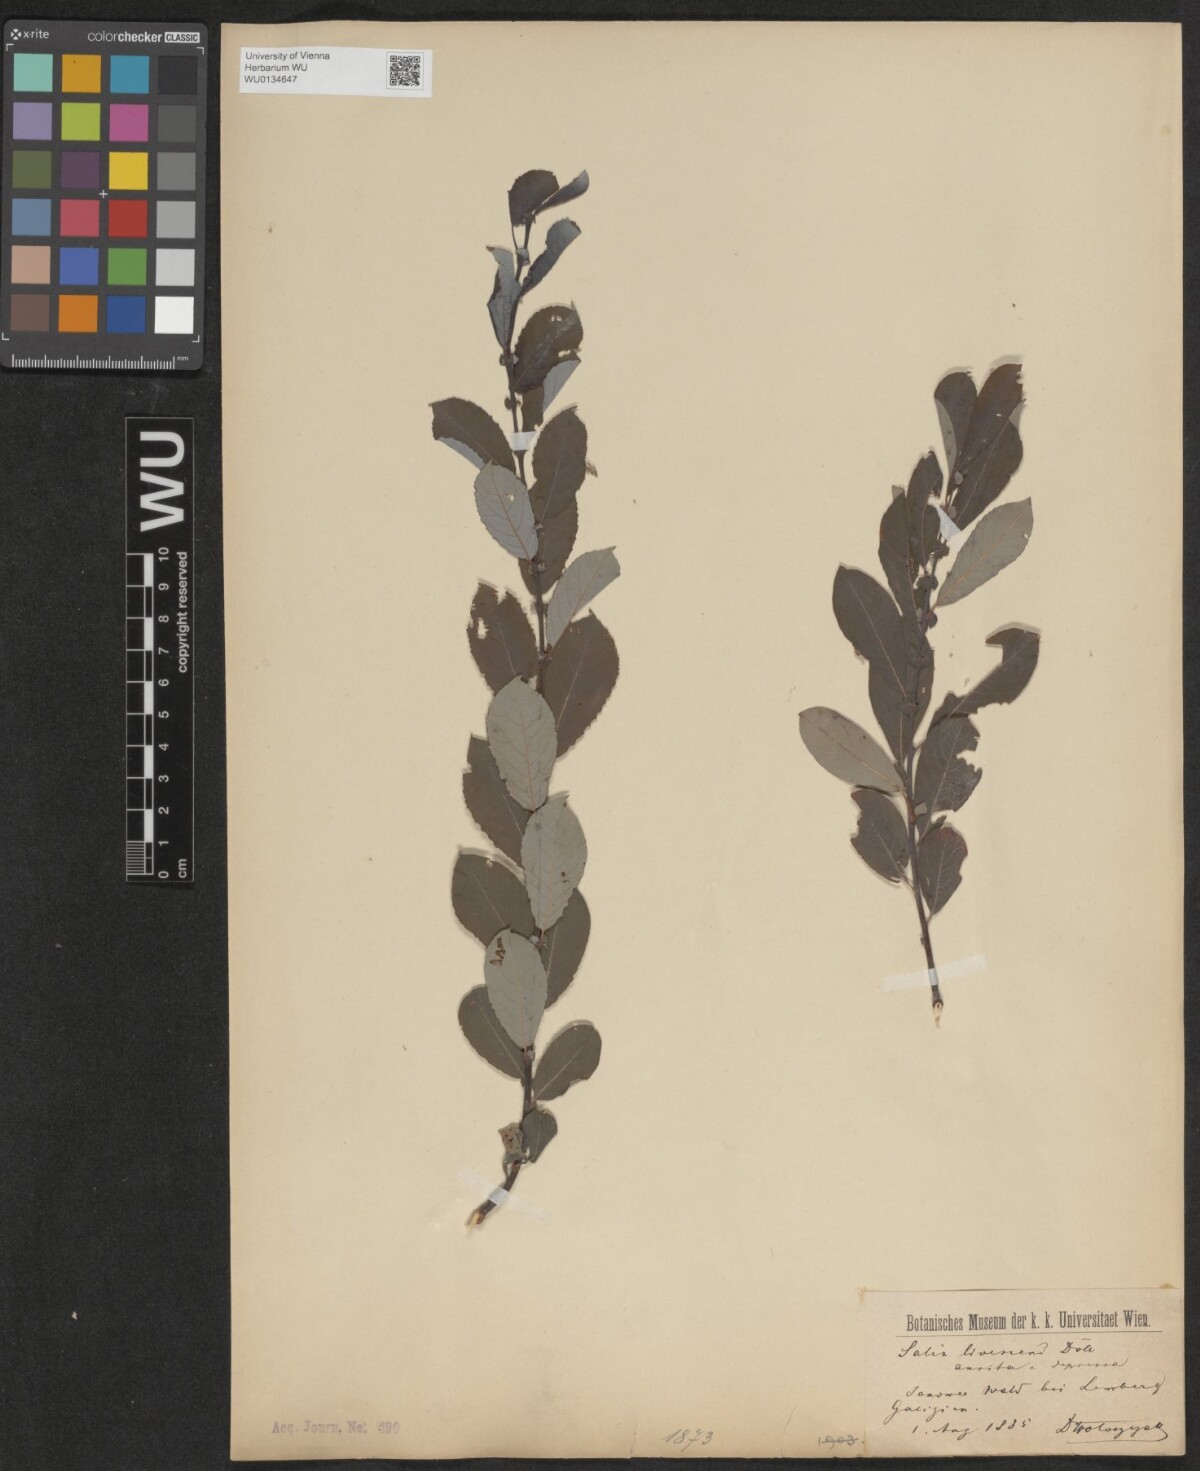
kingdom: Plantae
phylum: Tracheophyta
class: Magnoliopsida
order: Malpighiales
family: Salicaceae
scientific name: Salicaceae
